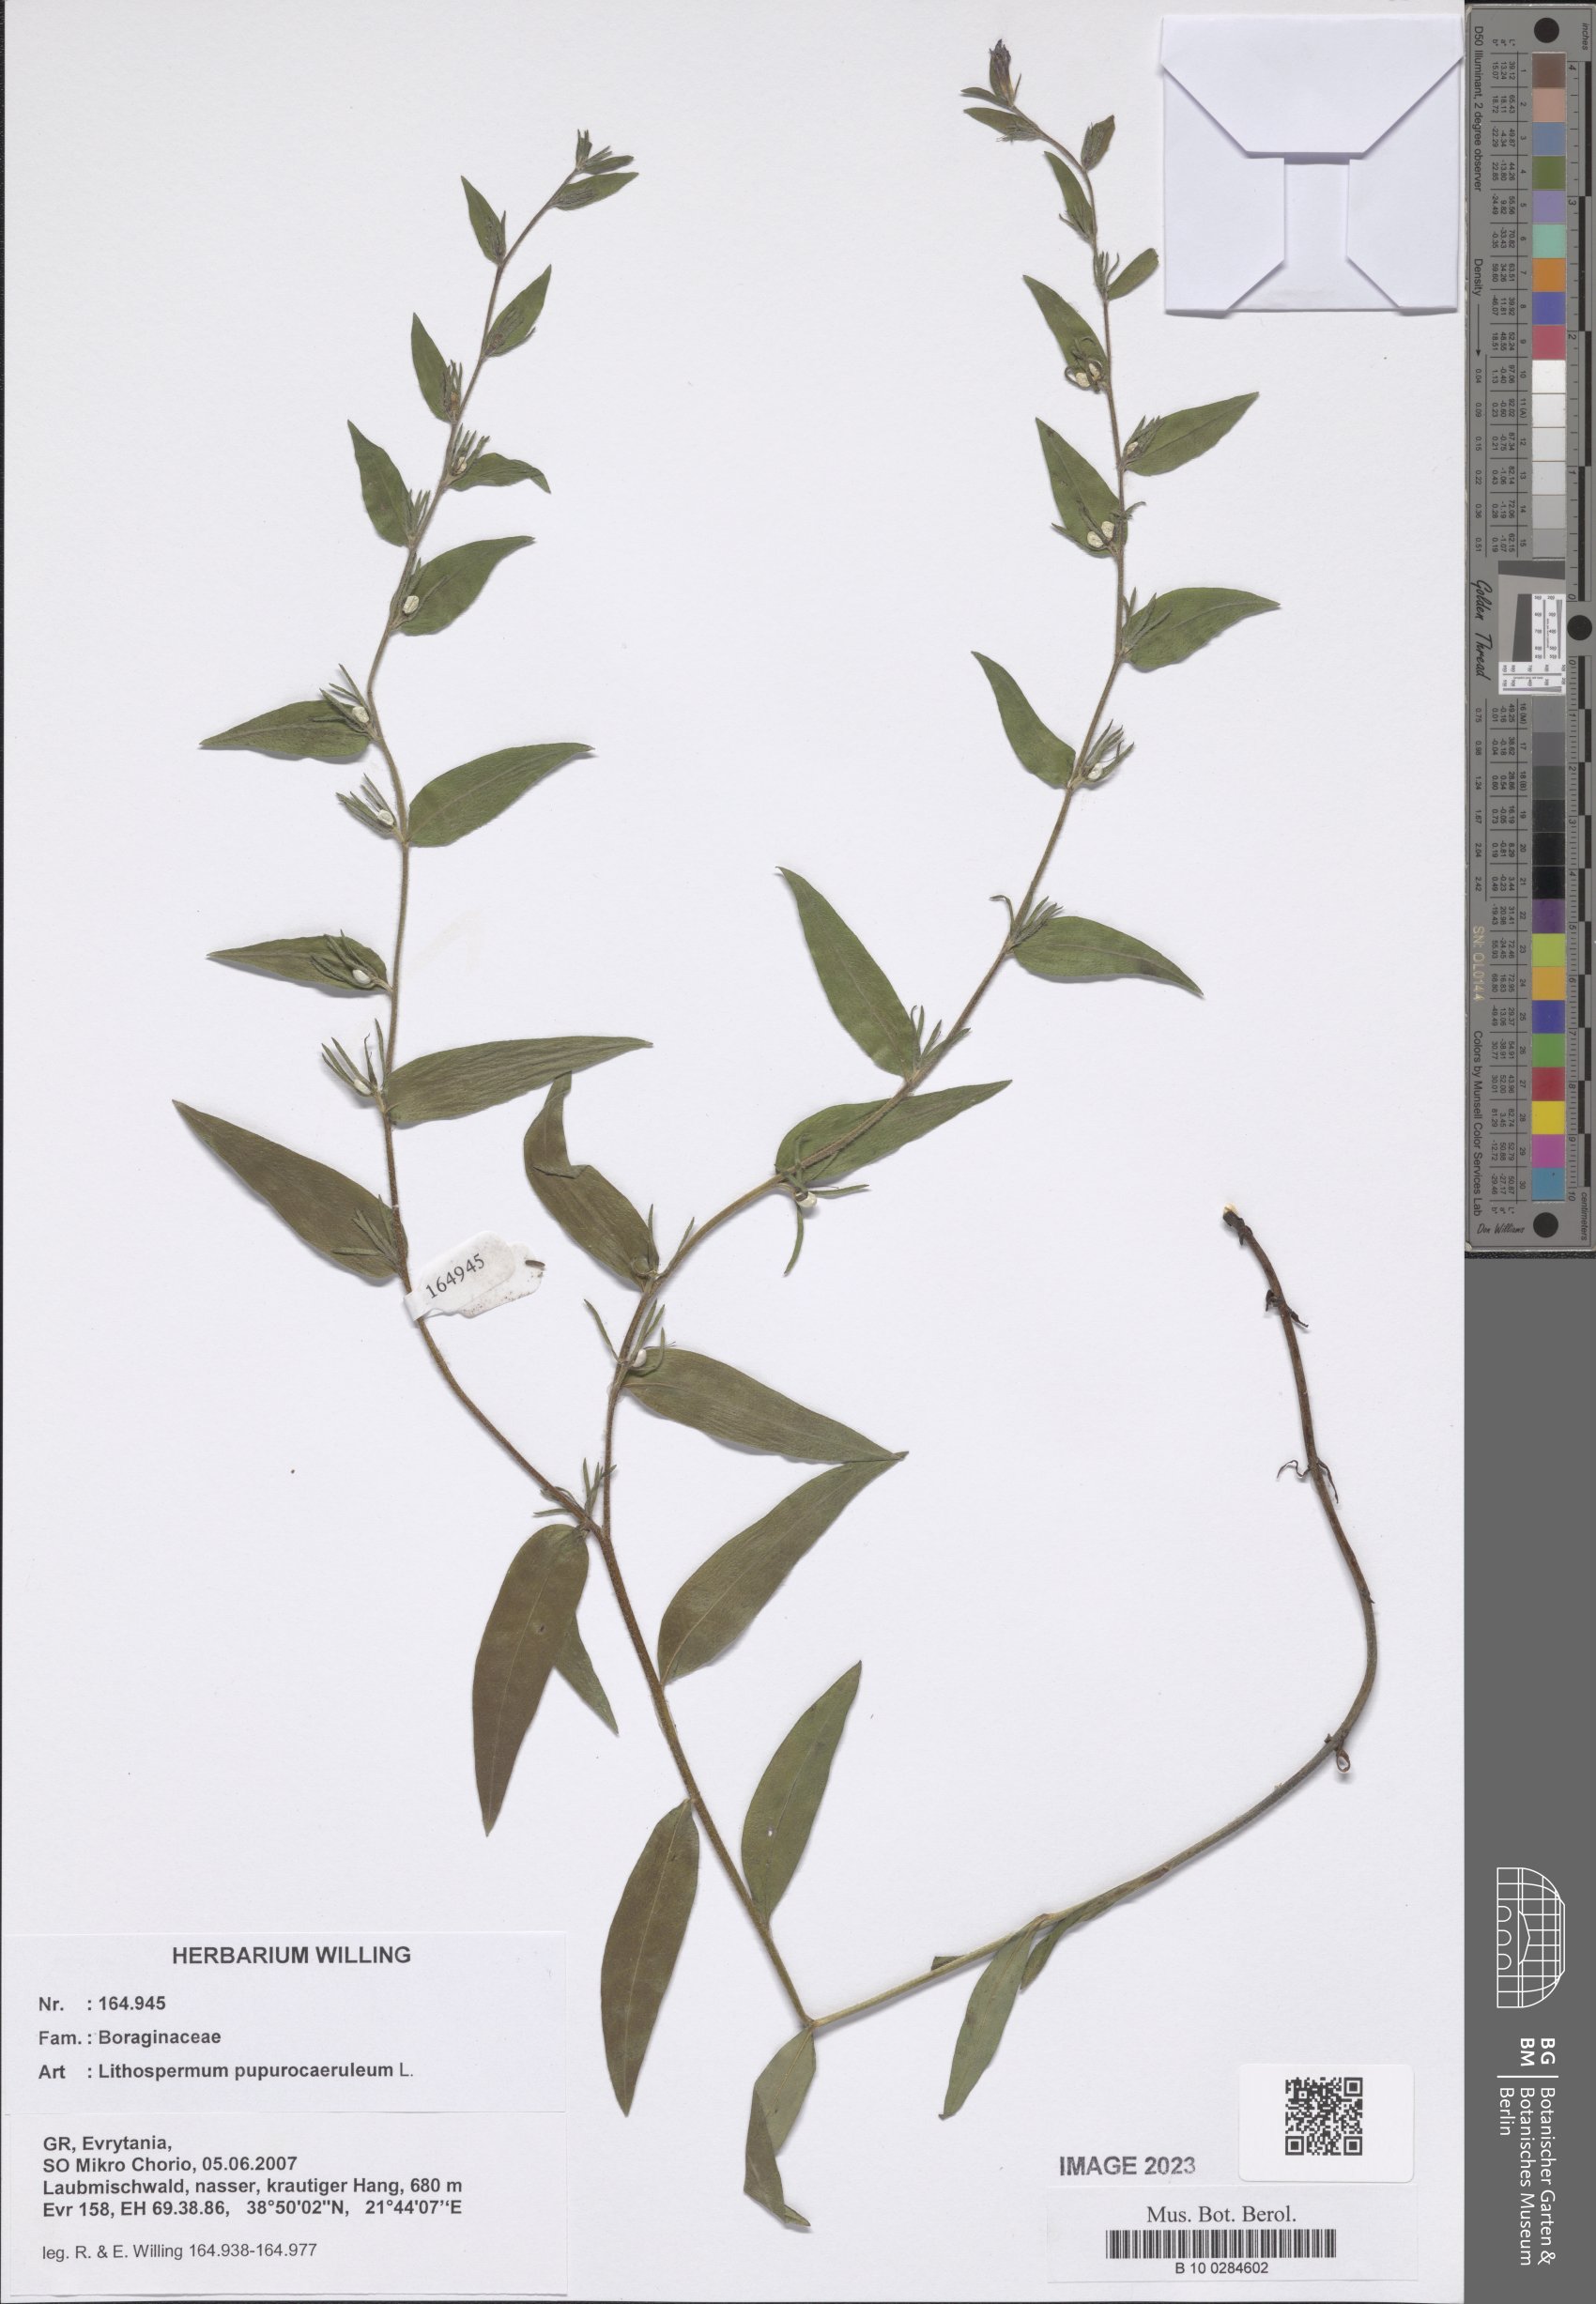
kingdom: Plantae
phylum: Tracheophyta
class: Magnoliopsida
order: Boraginales
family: Boraginaceae
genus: Aegonychon
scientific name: Aegonychon purpurocaeruleum
